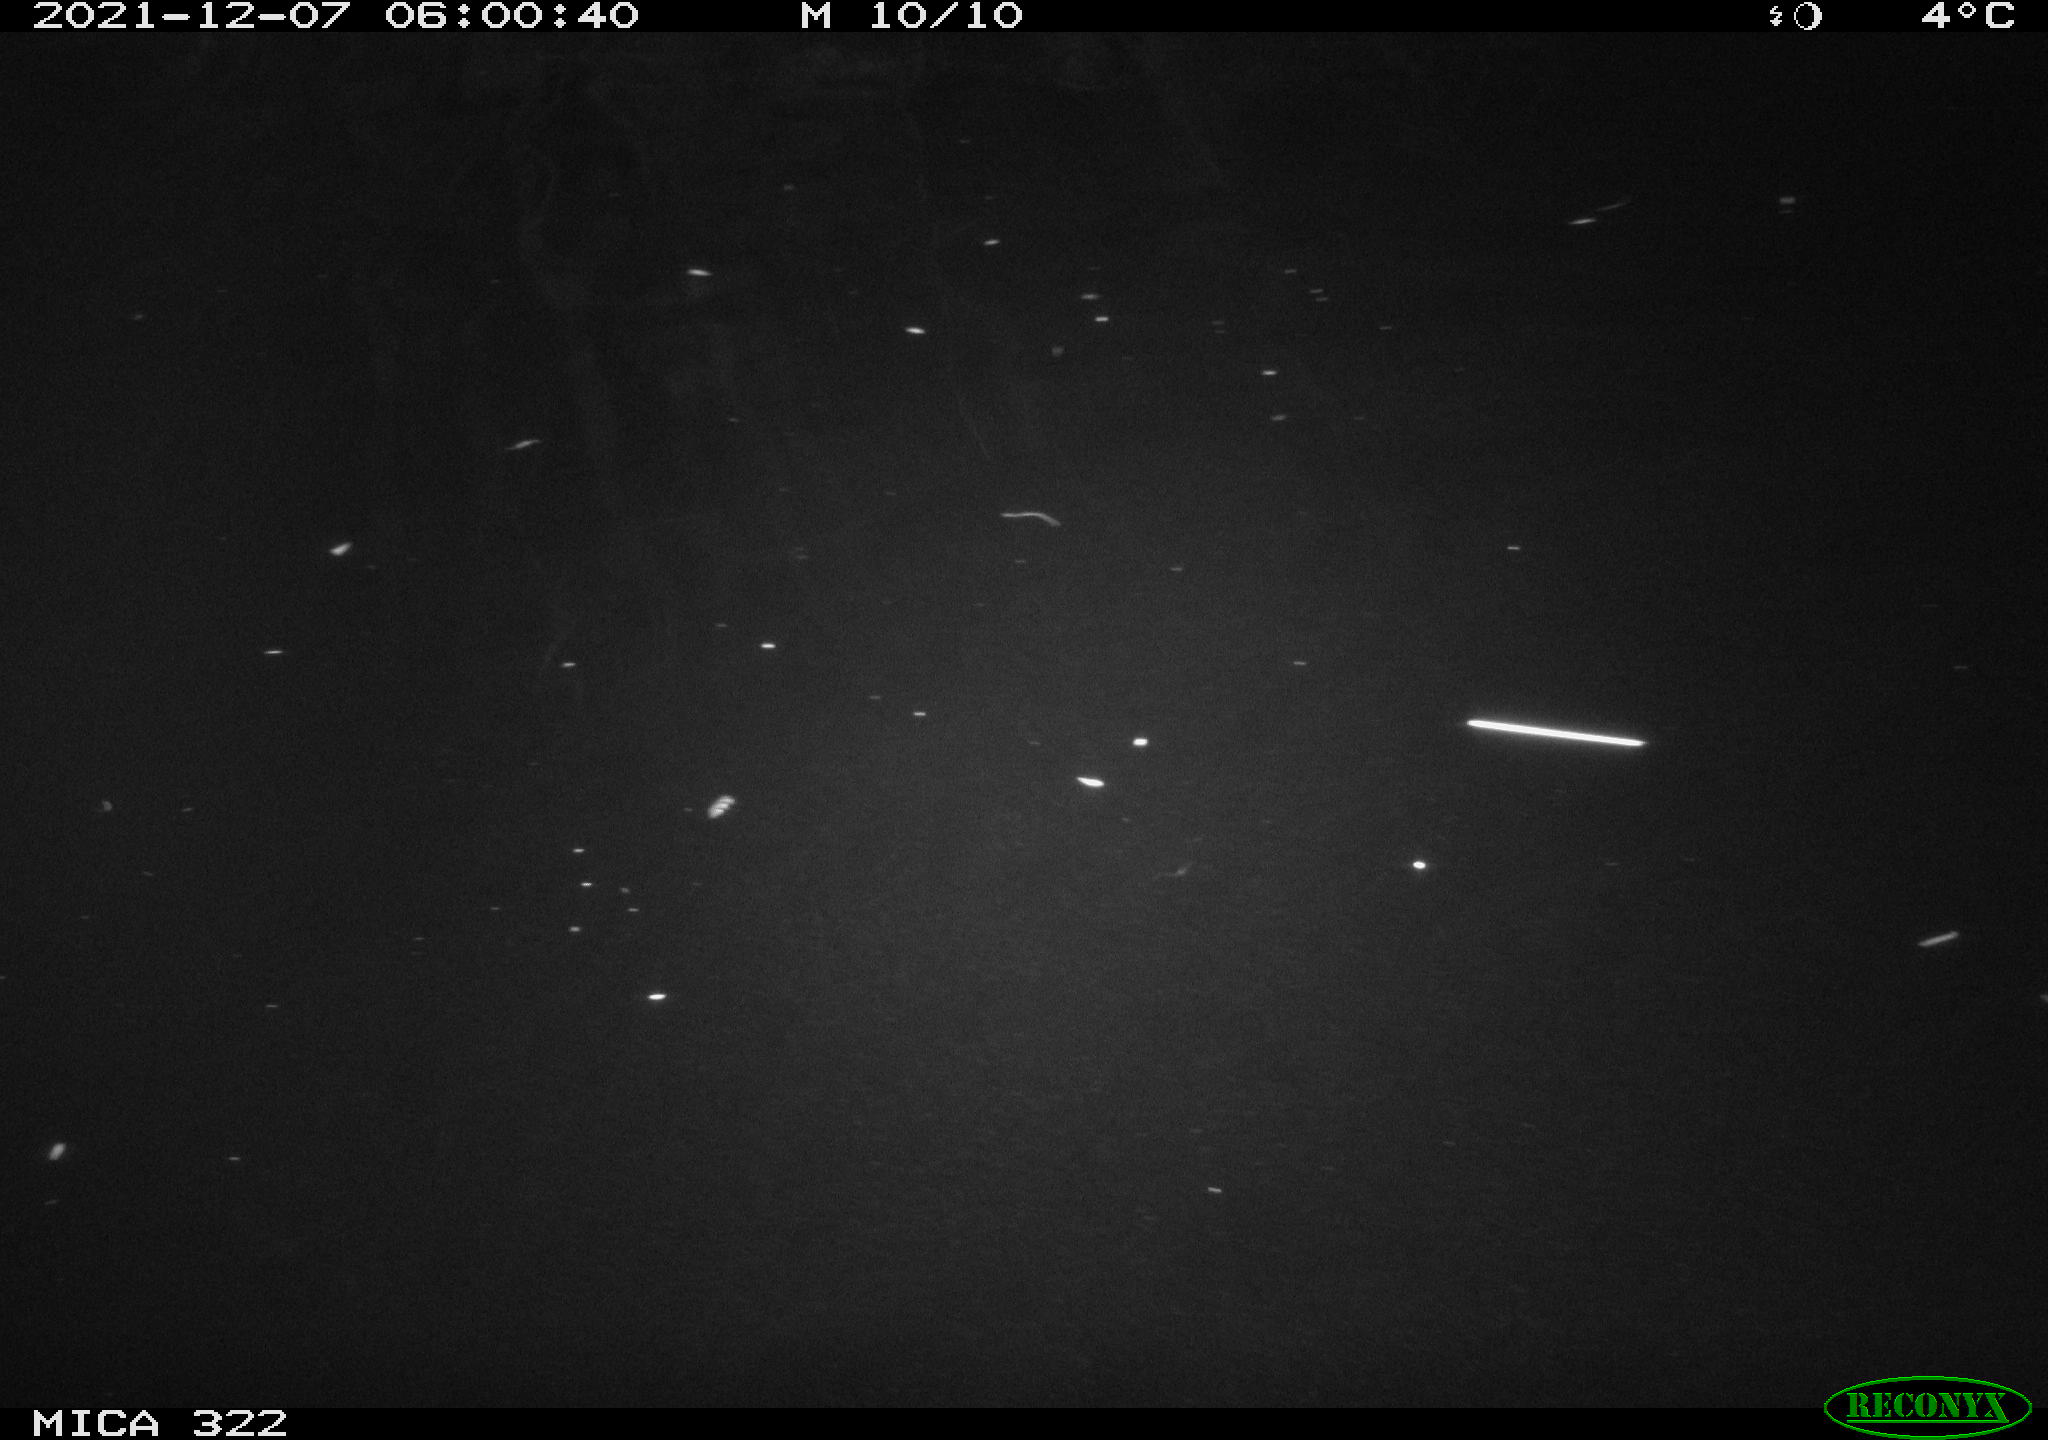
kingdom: Animalia
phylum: Chordata
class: Mammalia
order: Rodentia
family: Muridae
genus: Rattus
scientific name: Rattus norvegicus
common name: Brown rat
